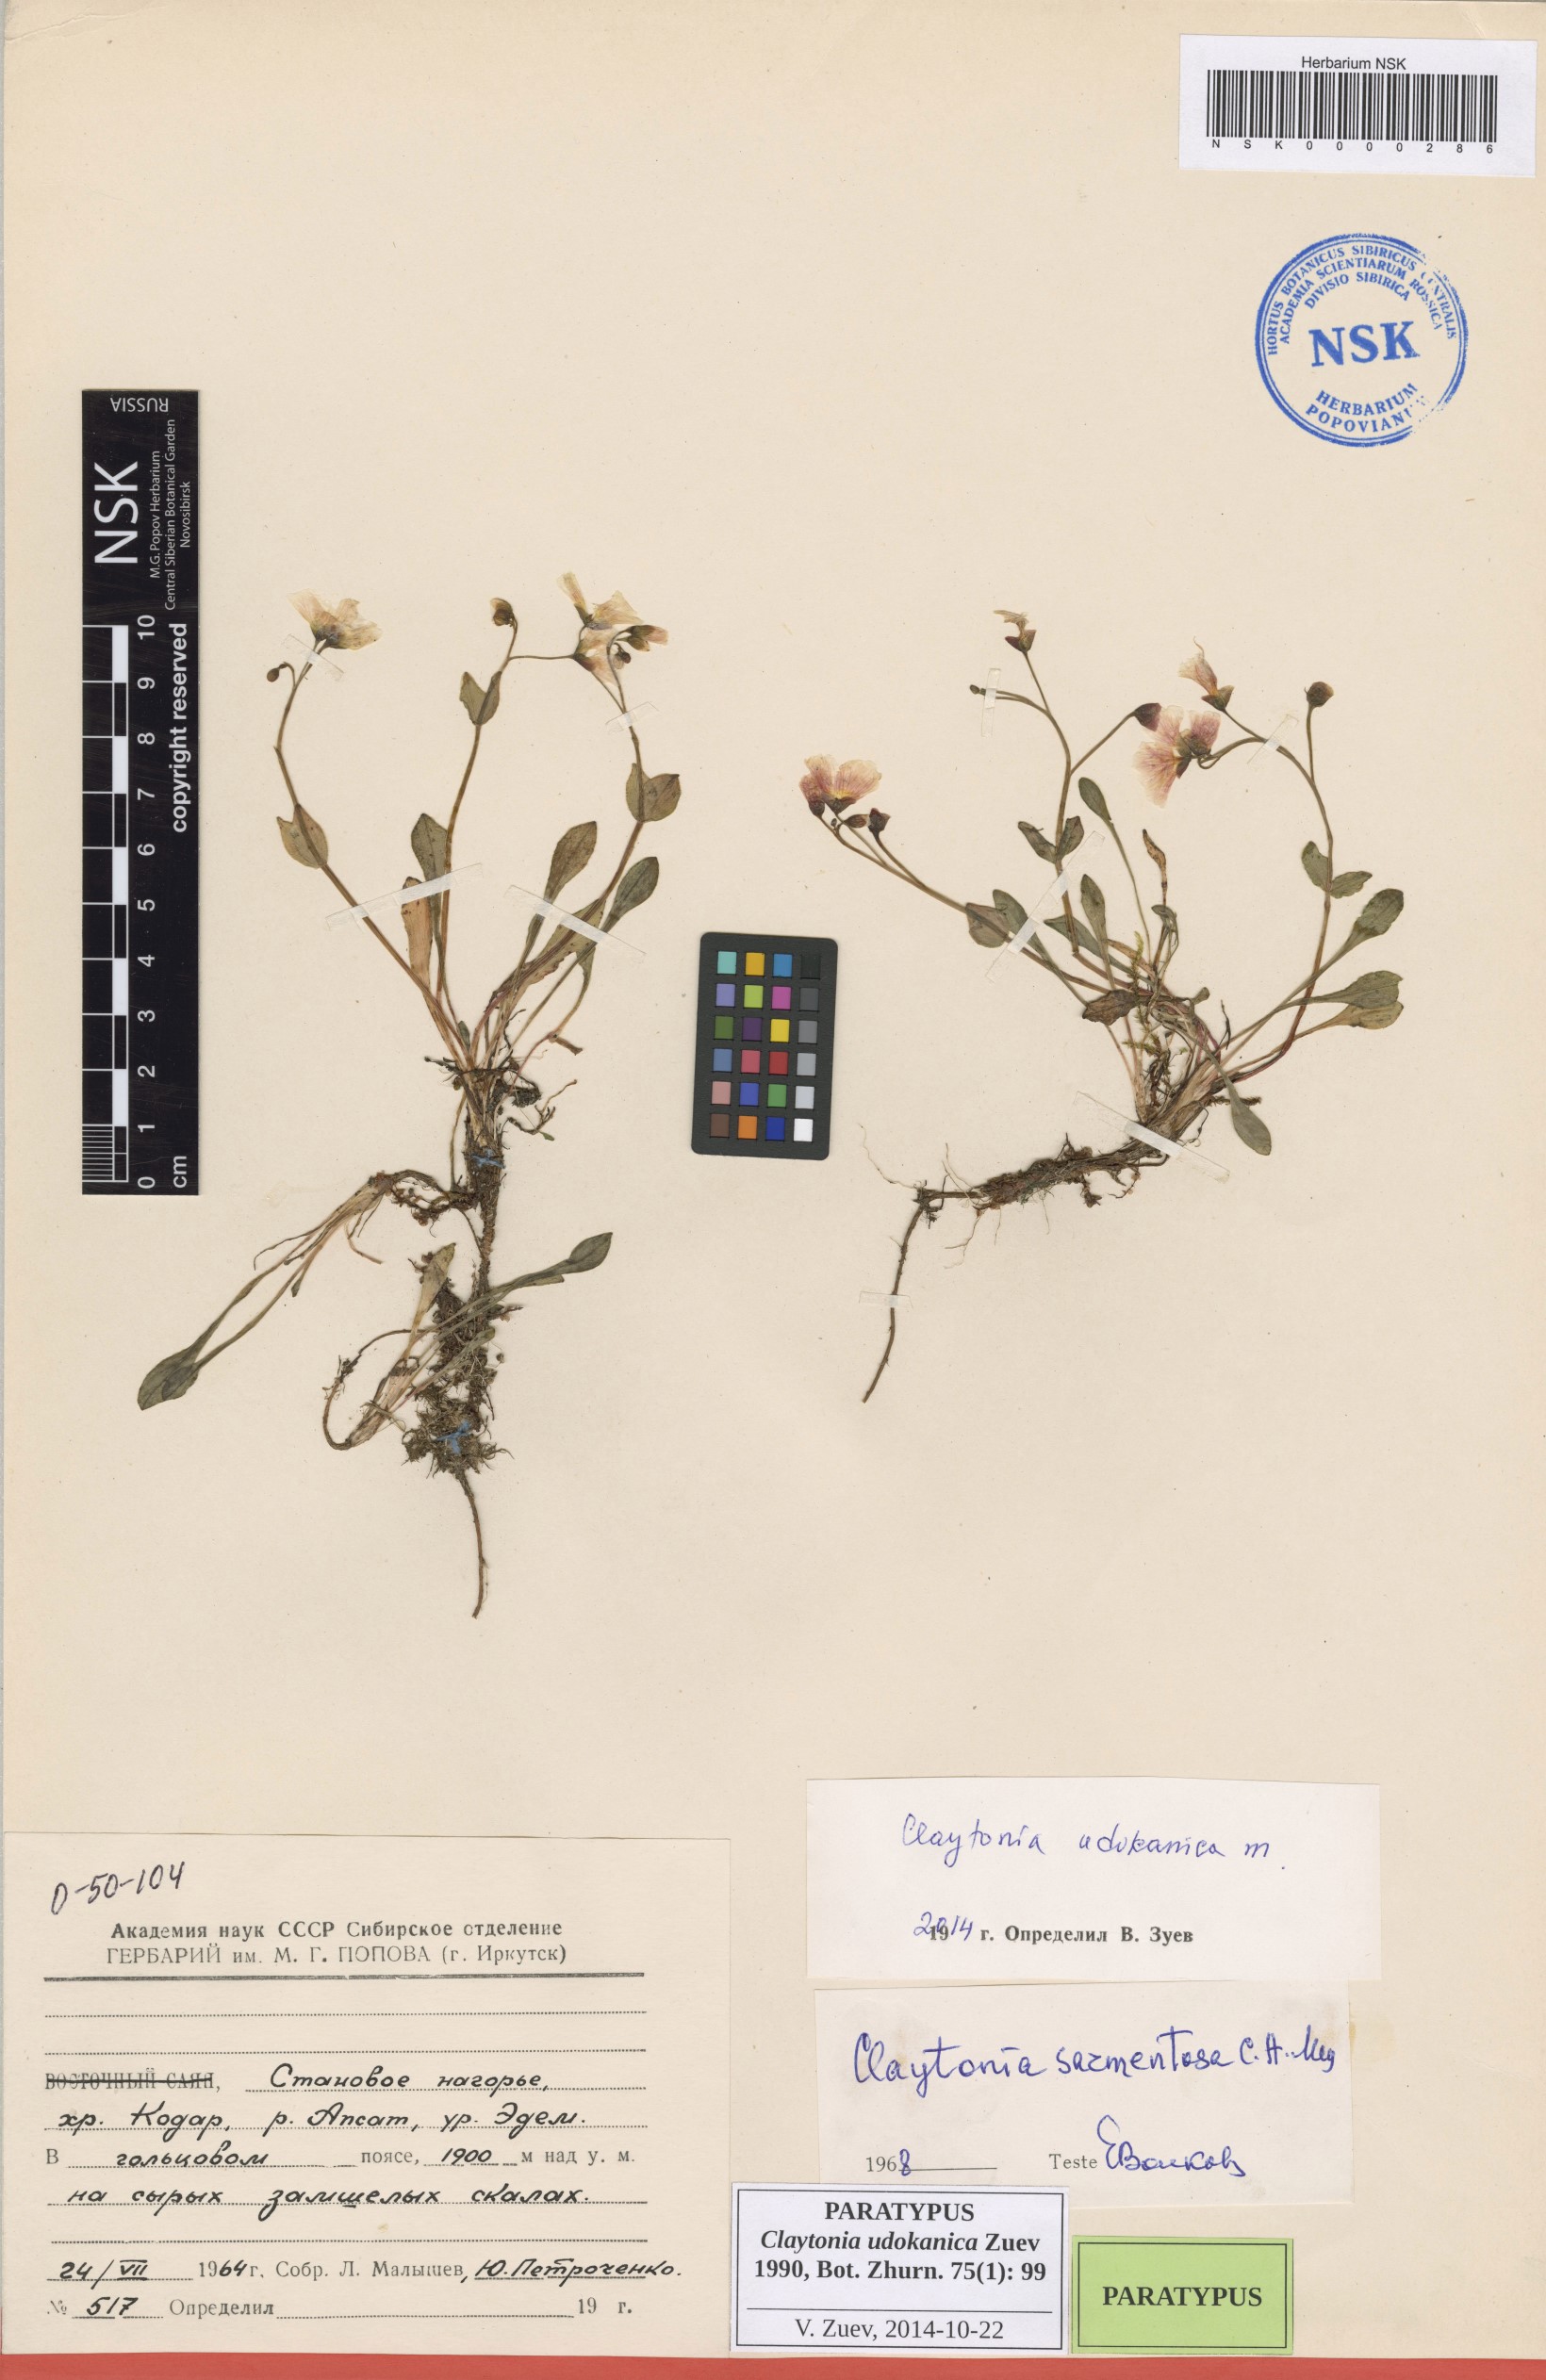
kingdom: Plantae
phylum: Tracheophyta
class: Magnoliopsida
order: Caryophyllales
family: Montiaceae
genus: Claytonia
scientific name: Claytonia udokanica
